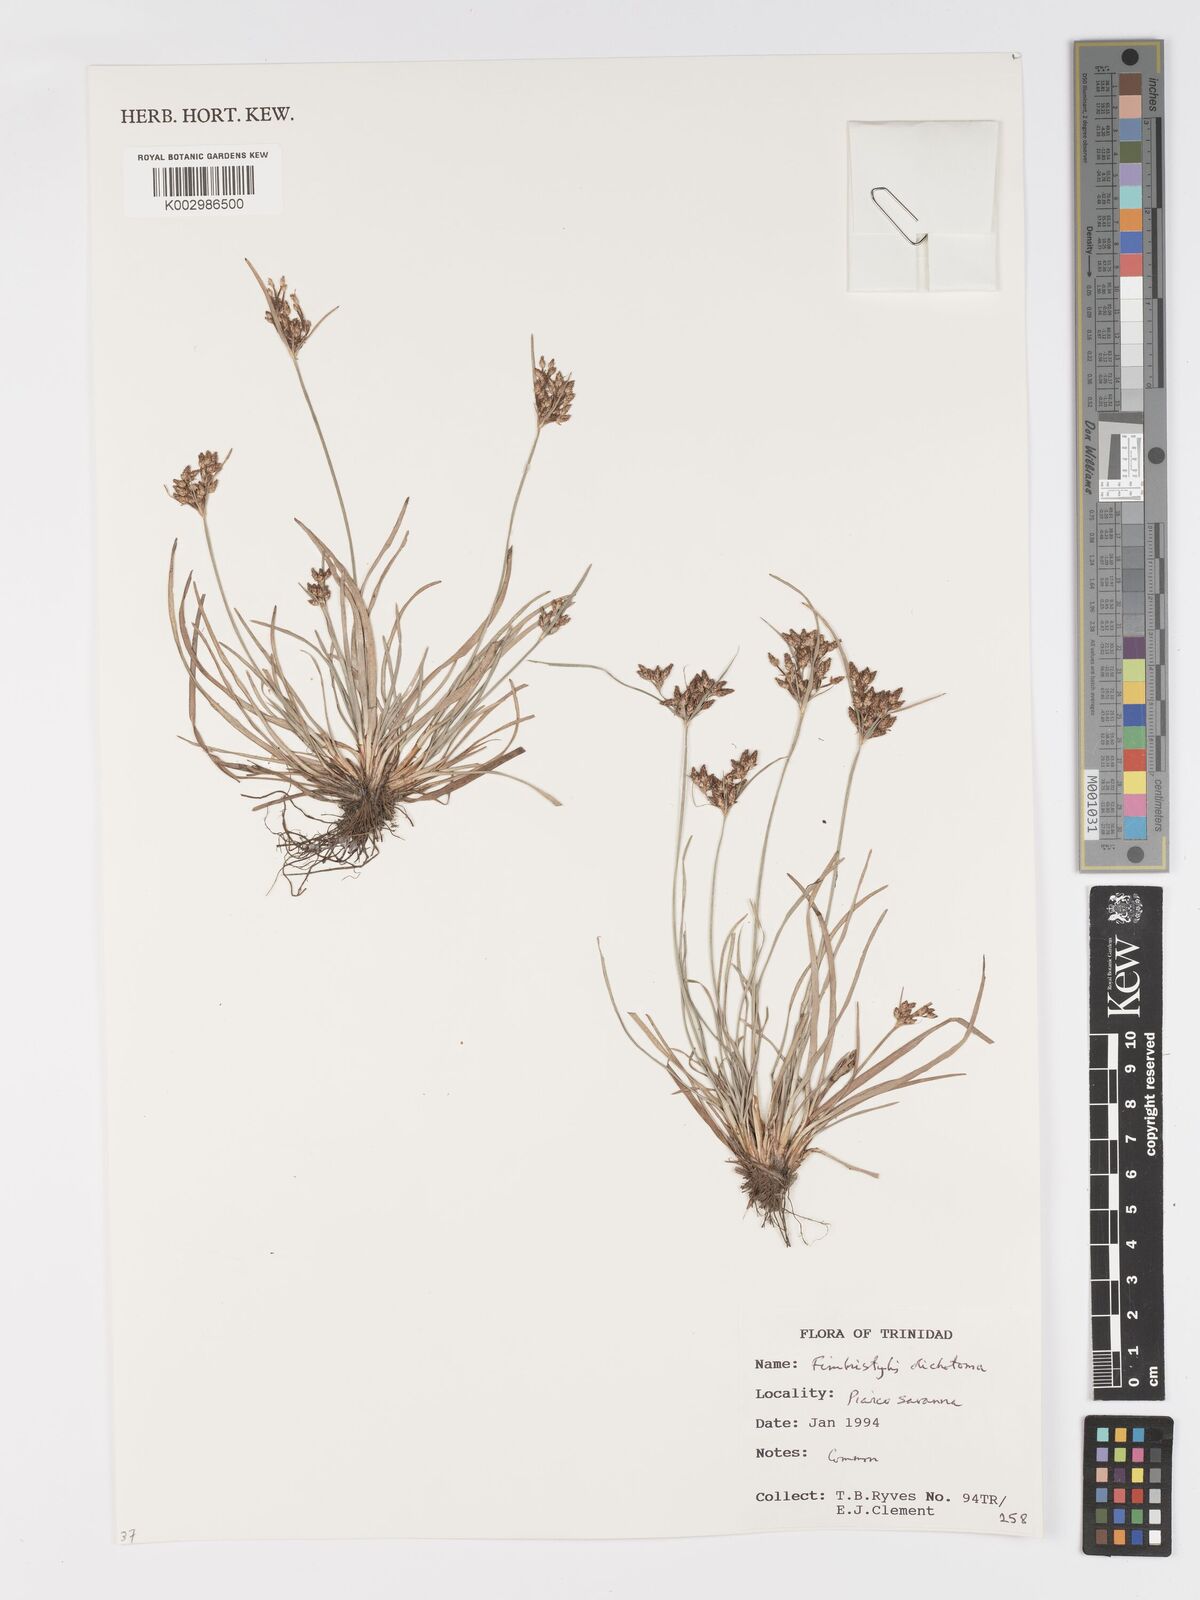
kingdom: Plantae
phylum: Tracheophyta
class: Liliopsida
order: Poales
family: Cyperaceae
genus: Fimbristylis
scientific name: Fimbristylis dichotoma
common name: Forked fimbry
